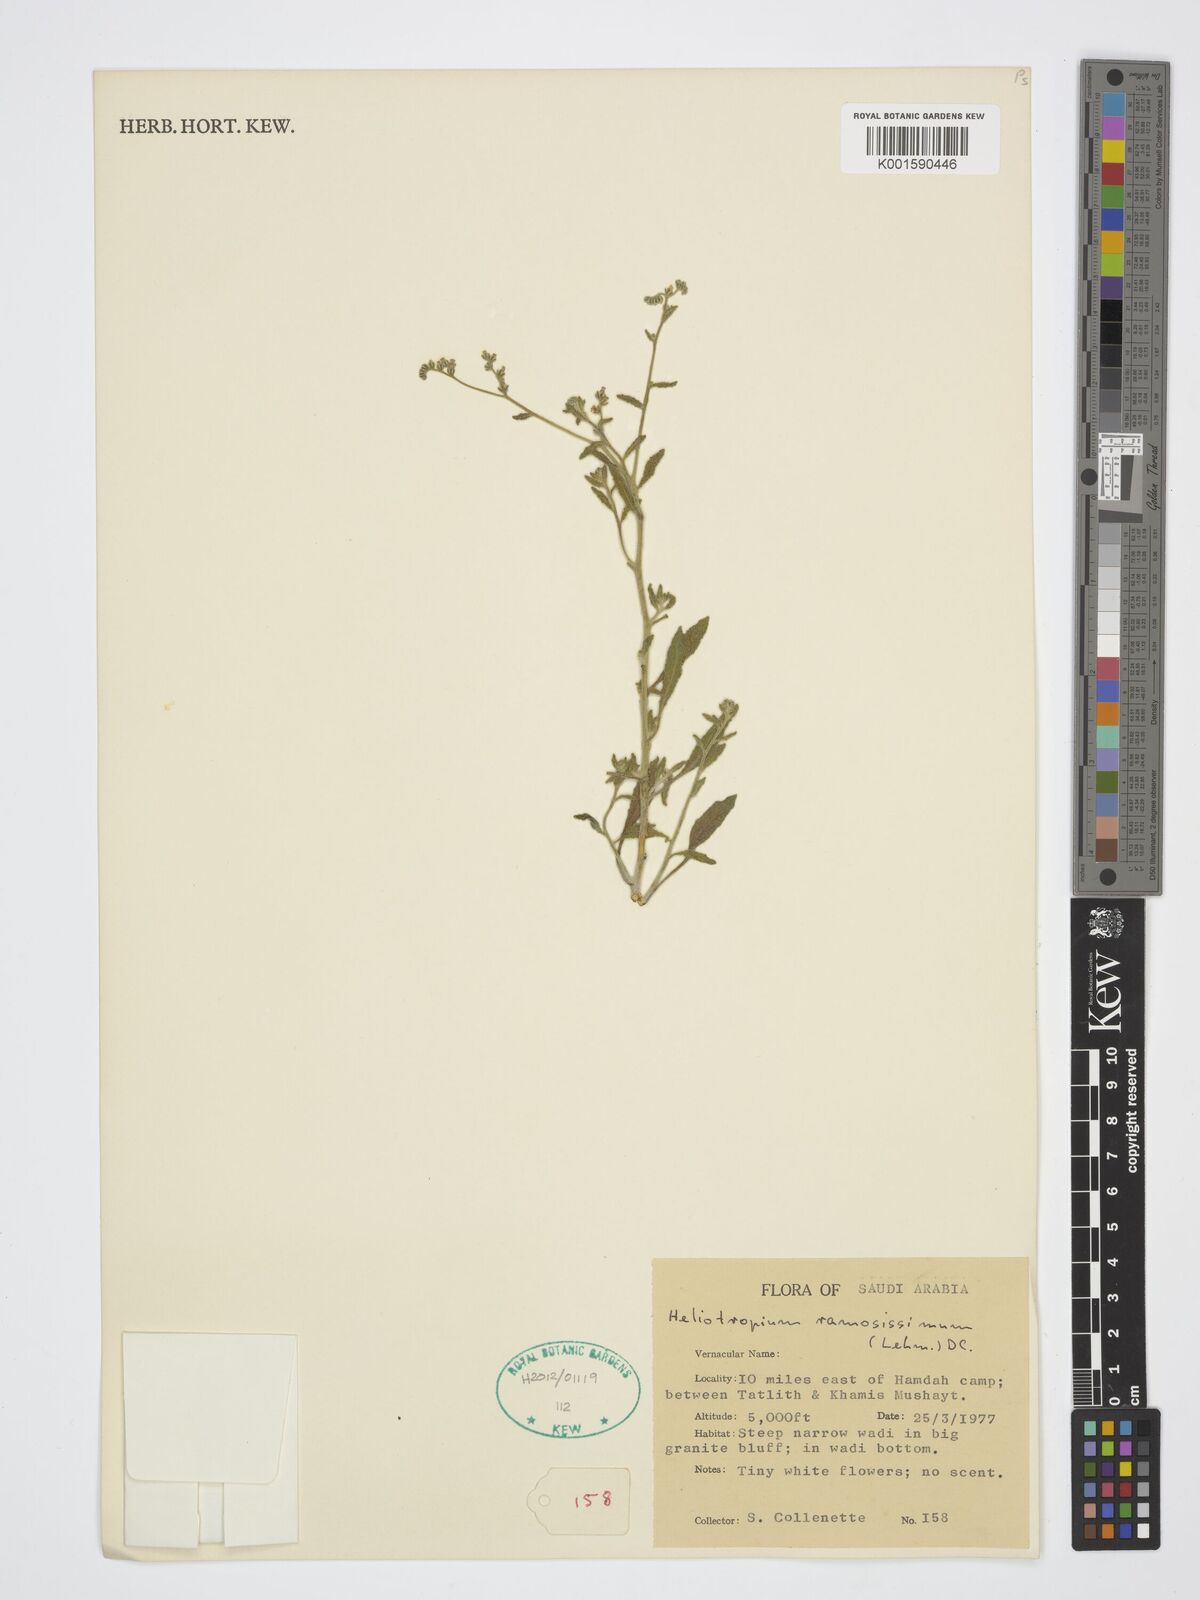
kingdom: Plantae
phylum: Tracheophyta
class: Magnoliopsida
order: Boraginales
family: Heliotropiaceae
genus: Heliotropium
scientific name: Heliotropium ramosissimum
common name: Wavy heliotrope
